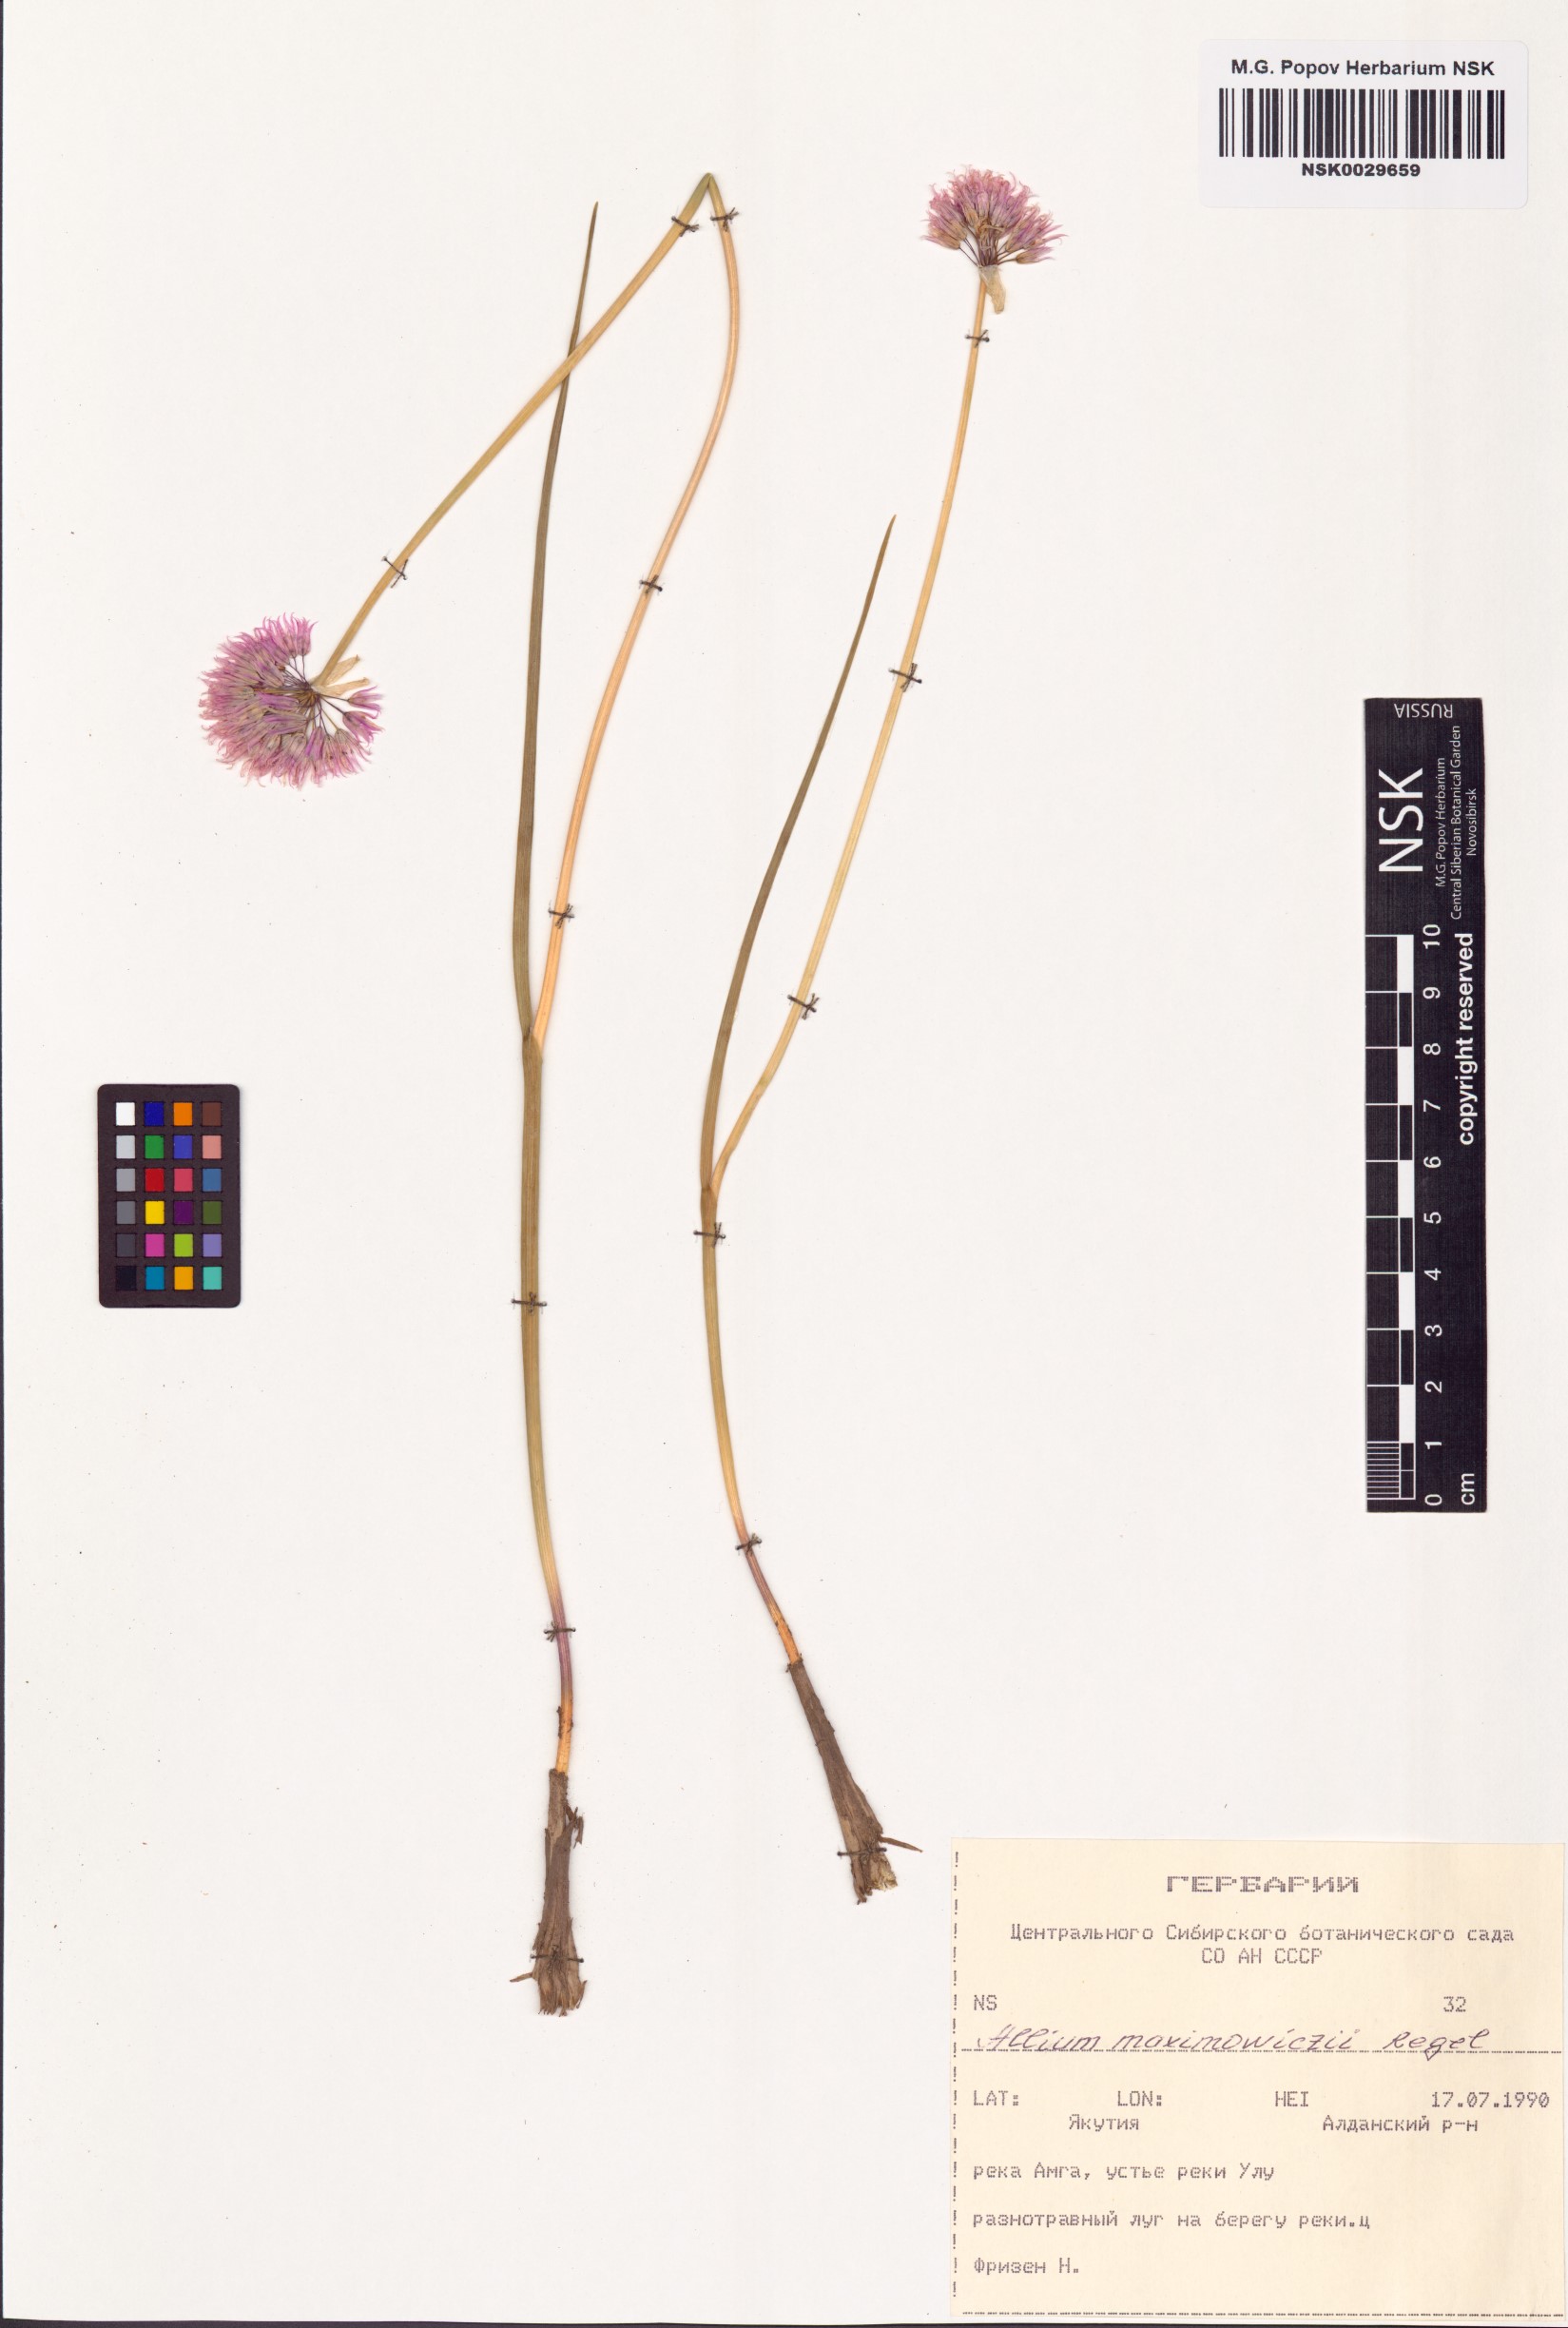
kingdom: Plantae
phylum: Tracheophyta
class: Liliopsida
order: Asparagales
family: Amaryllidaceae
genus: Allium
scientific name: Allium maximowiczii
